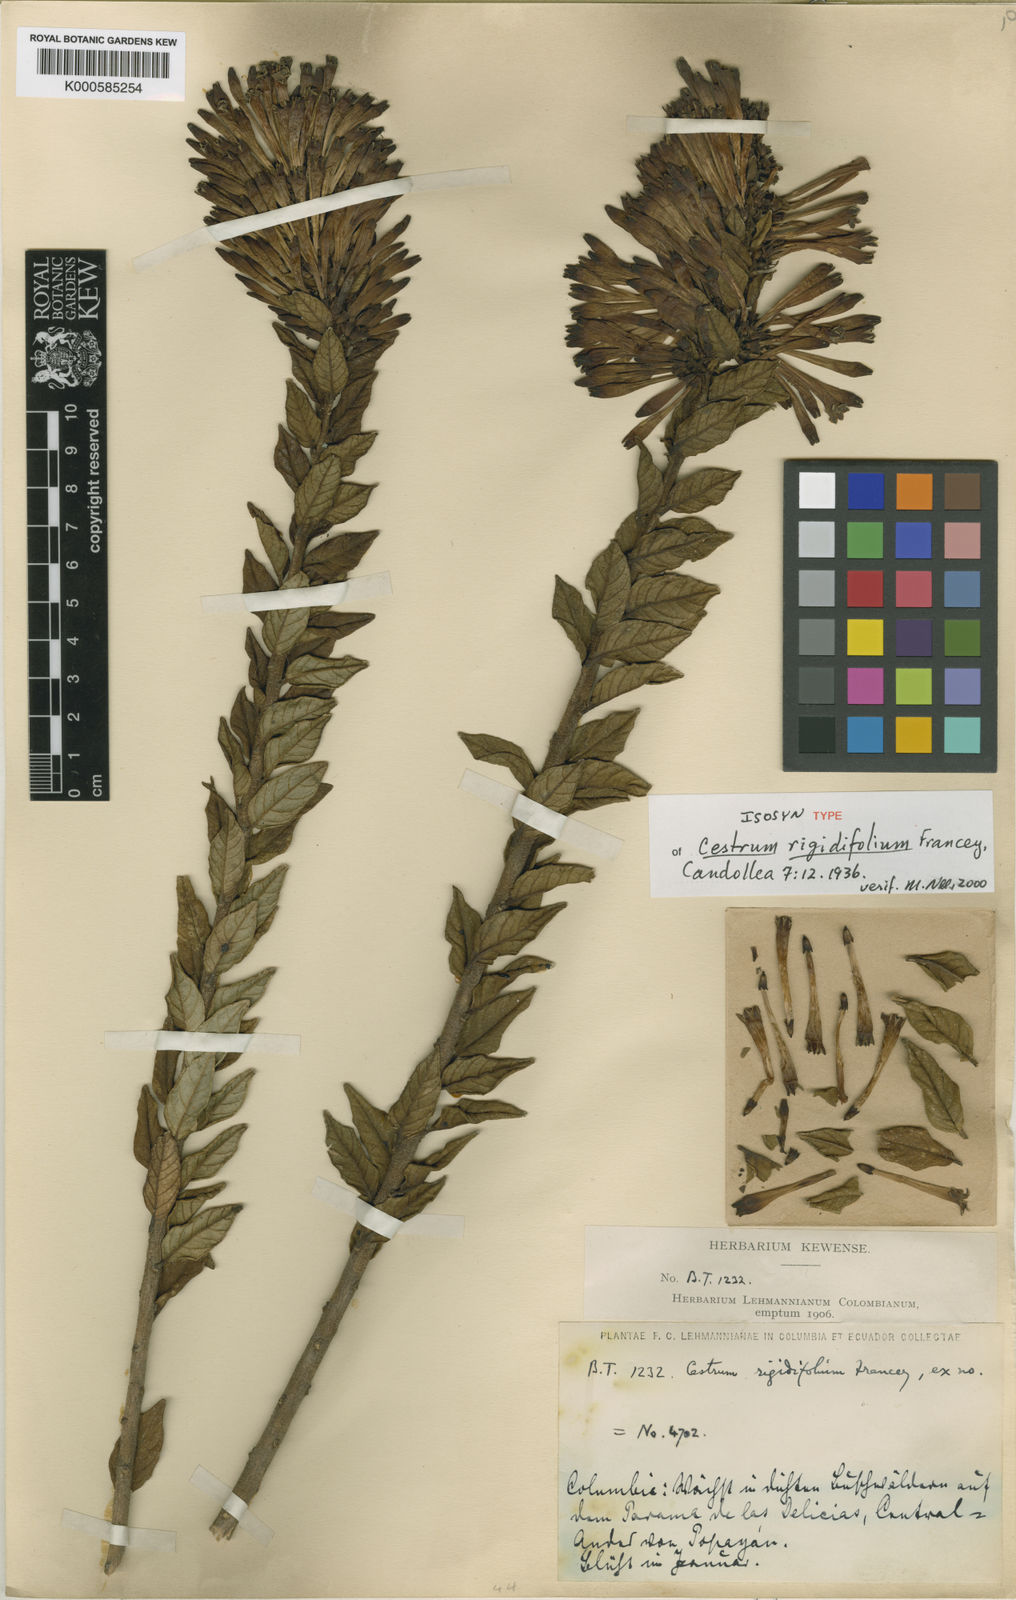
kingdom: Plantae
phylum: Tracheophyta
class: Magnoliopsida
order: Solanales
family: Solanaceae
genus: Cestrum
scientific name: Cestrum rigidifolium
